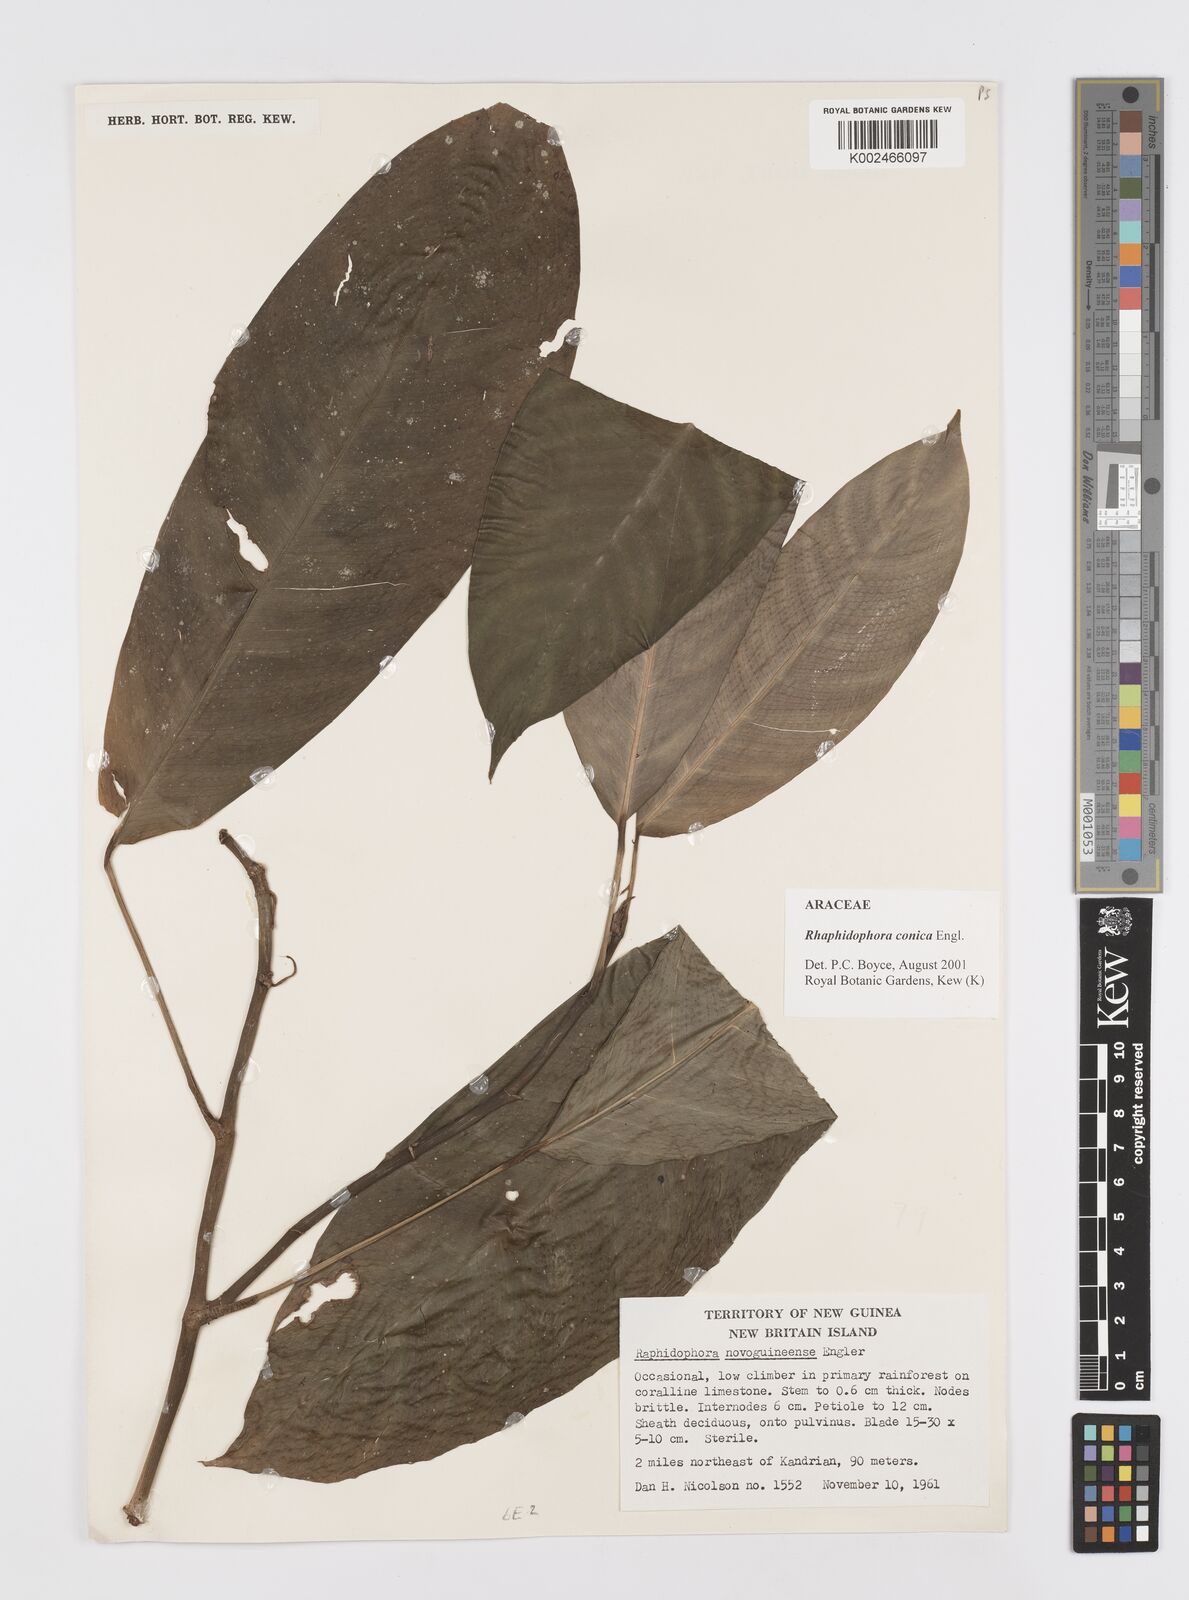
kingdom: Plantae
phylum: Tracheophyta
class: Liliopsida
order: Alismatales
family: Araceae
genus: Rhaphidophora
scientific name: Rhaphidophora conica
